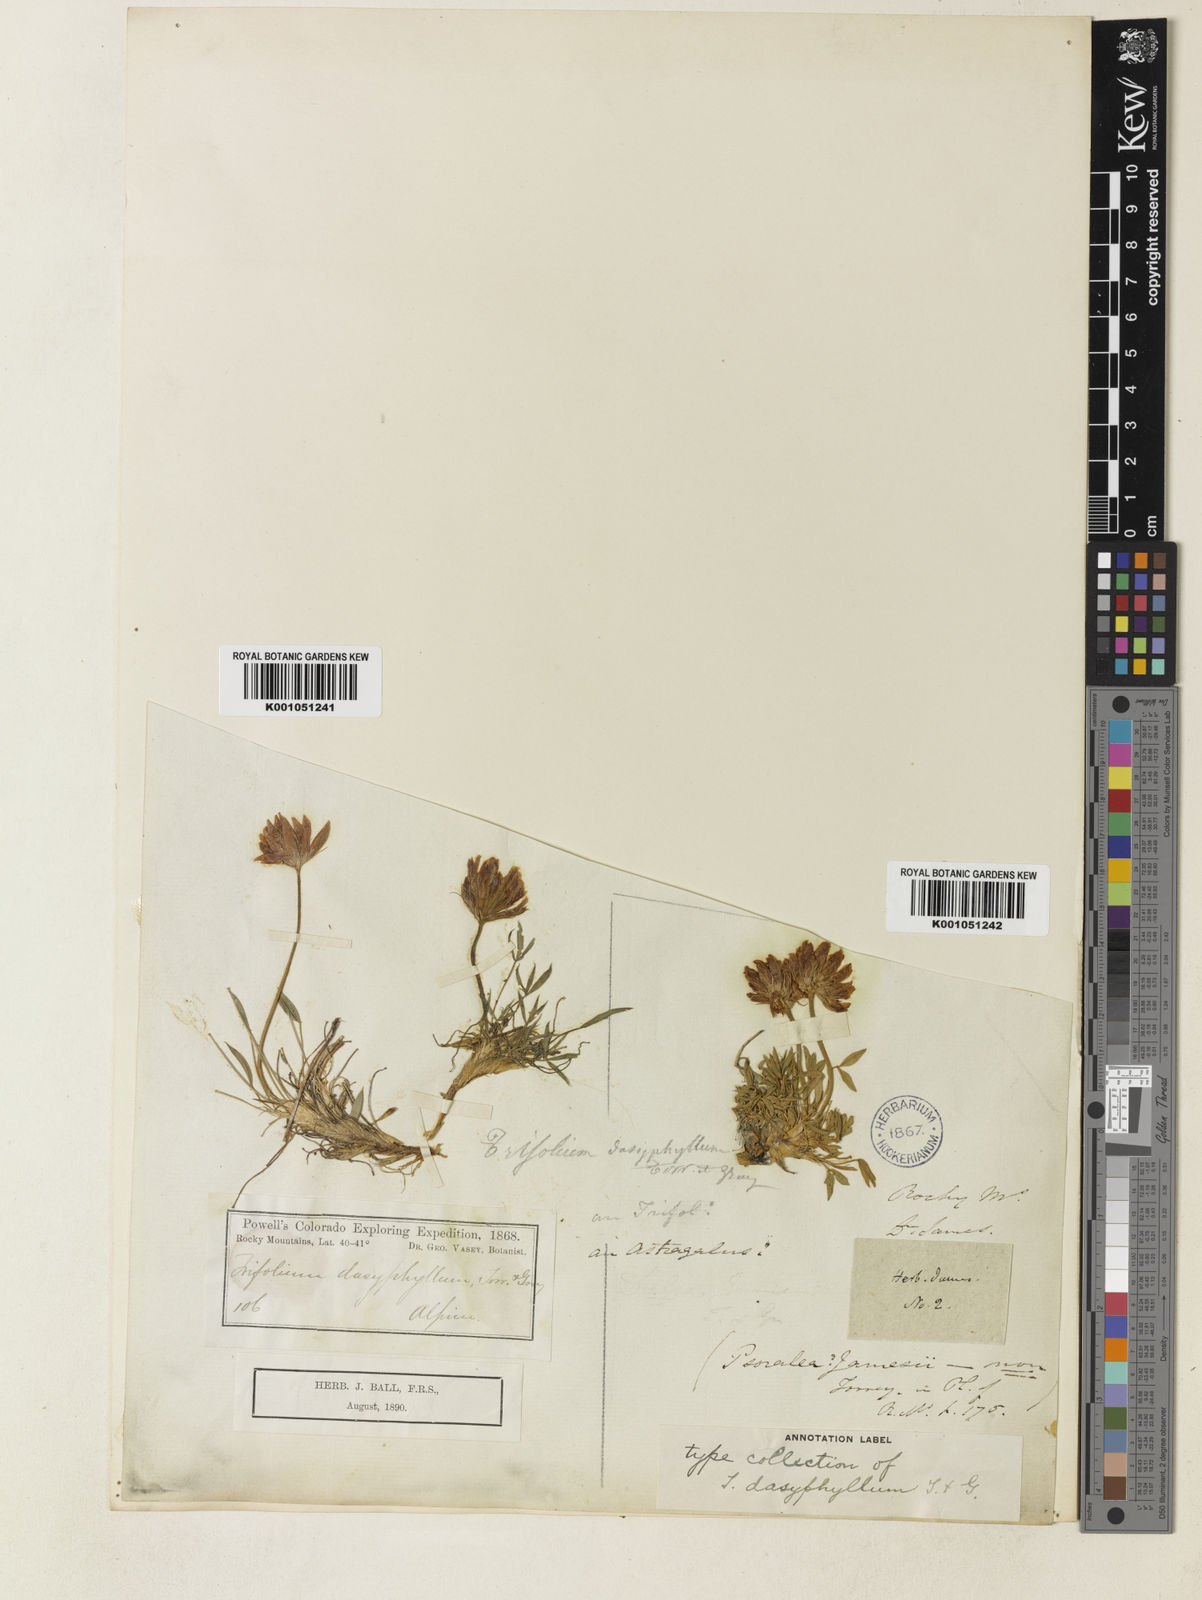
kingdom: Plantae
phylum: Tracheophyta
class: Magnoliopsida
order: Fabales
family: Fabaceae
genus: Trifolium
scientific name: Trifolium dasyphyllum
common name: Whip-root clover
